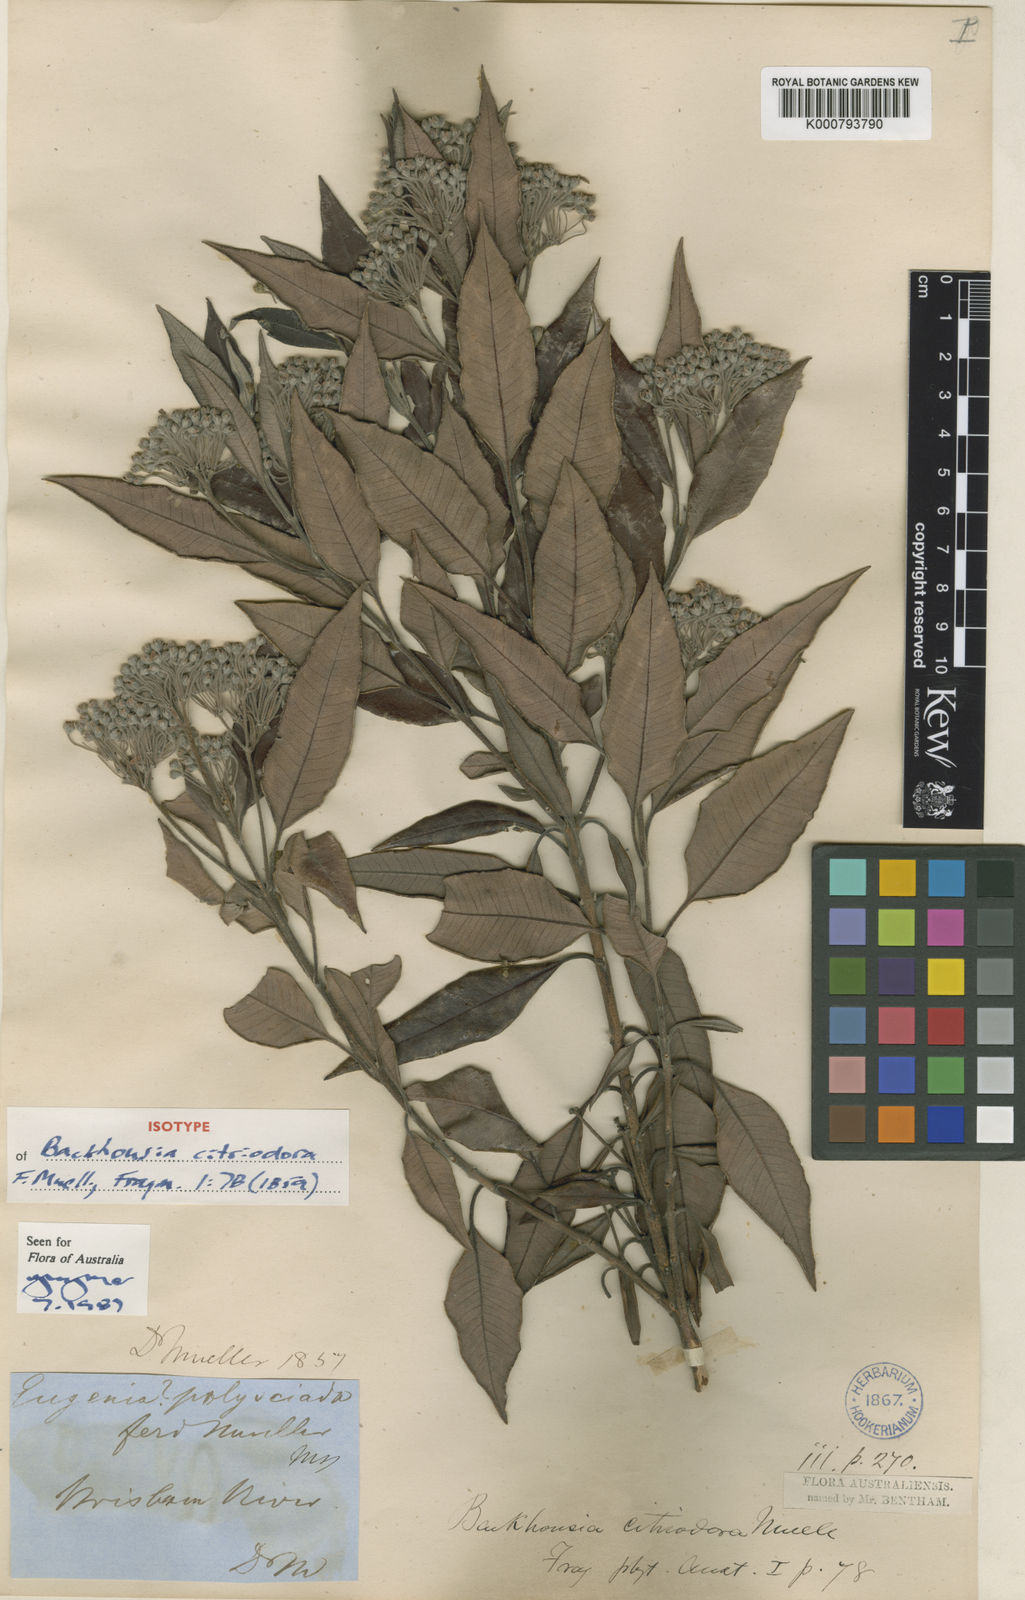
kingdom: Plantae
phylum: Tracheophyta
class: Magnoliopsida
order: Myrtales
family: Myrtaceae
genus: Backhousia
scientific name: Backhousia citriodora
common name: Australian lemon myrtle
